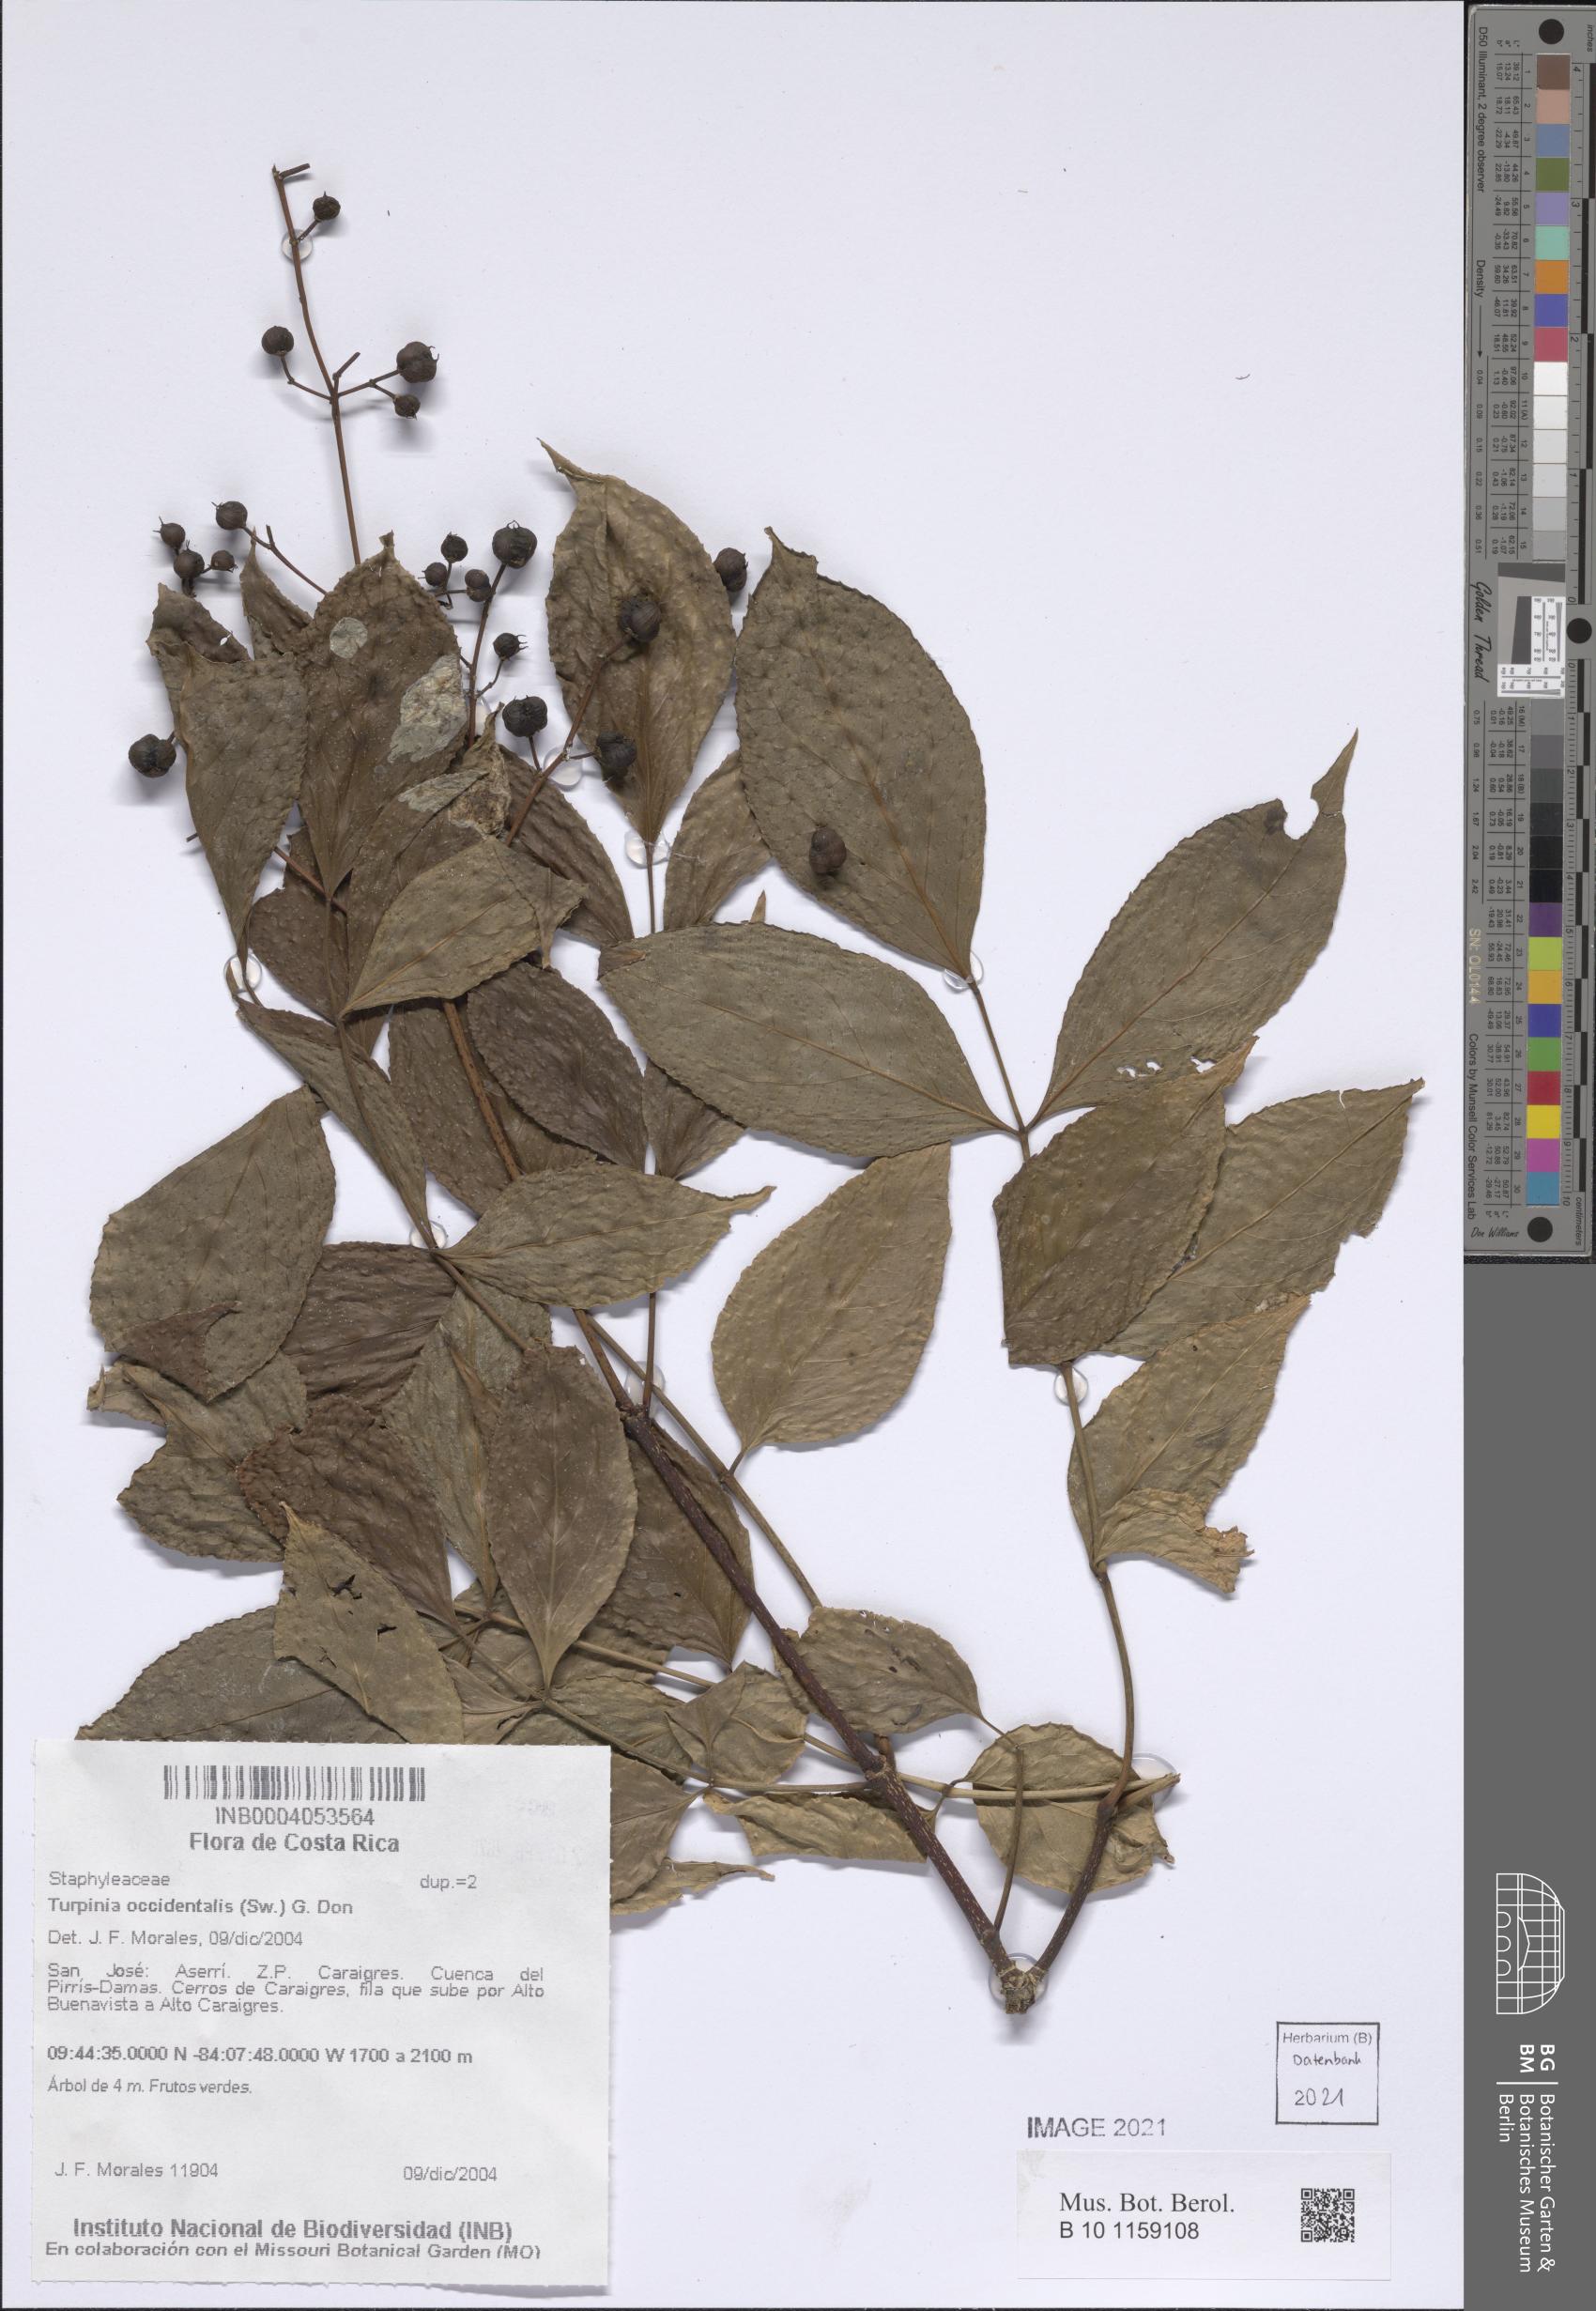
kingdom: Plantae
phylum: Tracheophyta
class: Magnoliopsida
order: Crossosomatales
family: Staphyleaceae
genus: Turpinia
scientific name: Turpinia occidentalis
